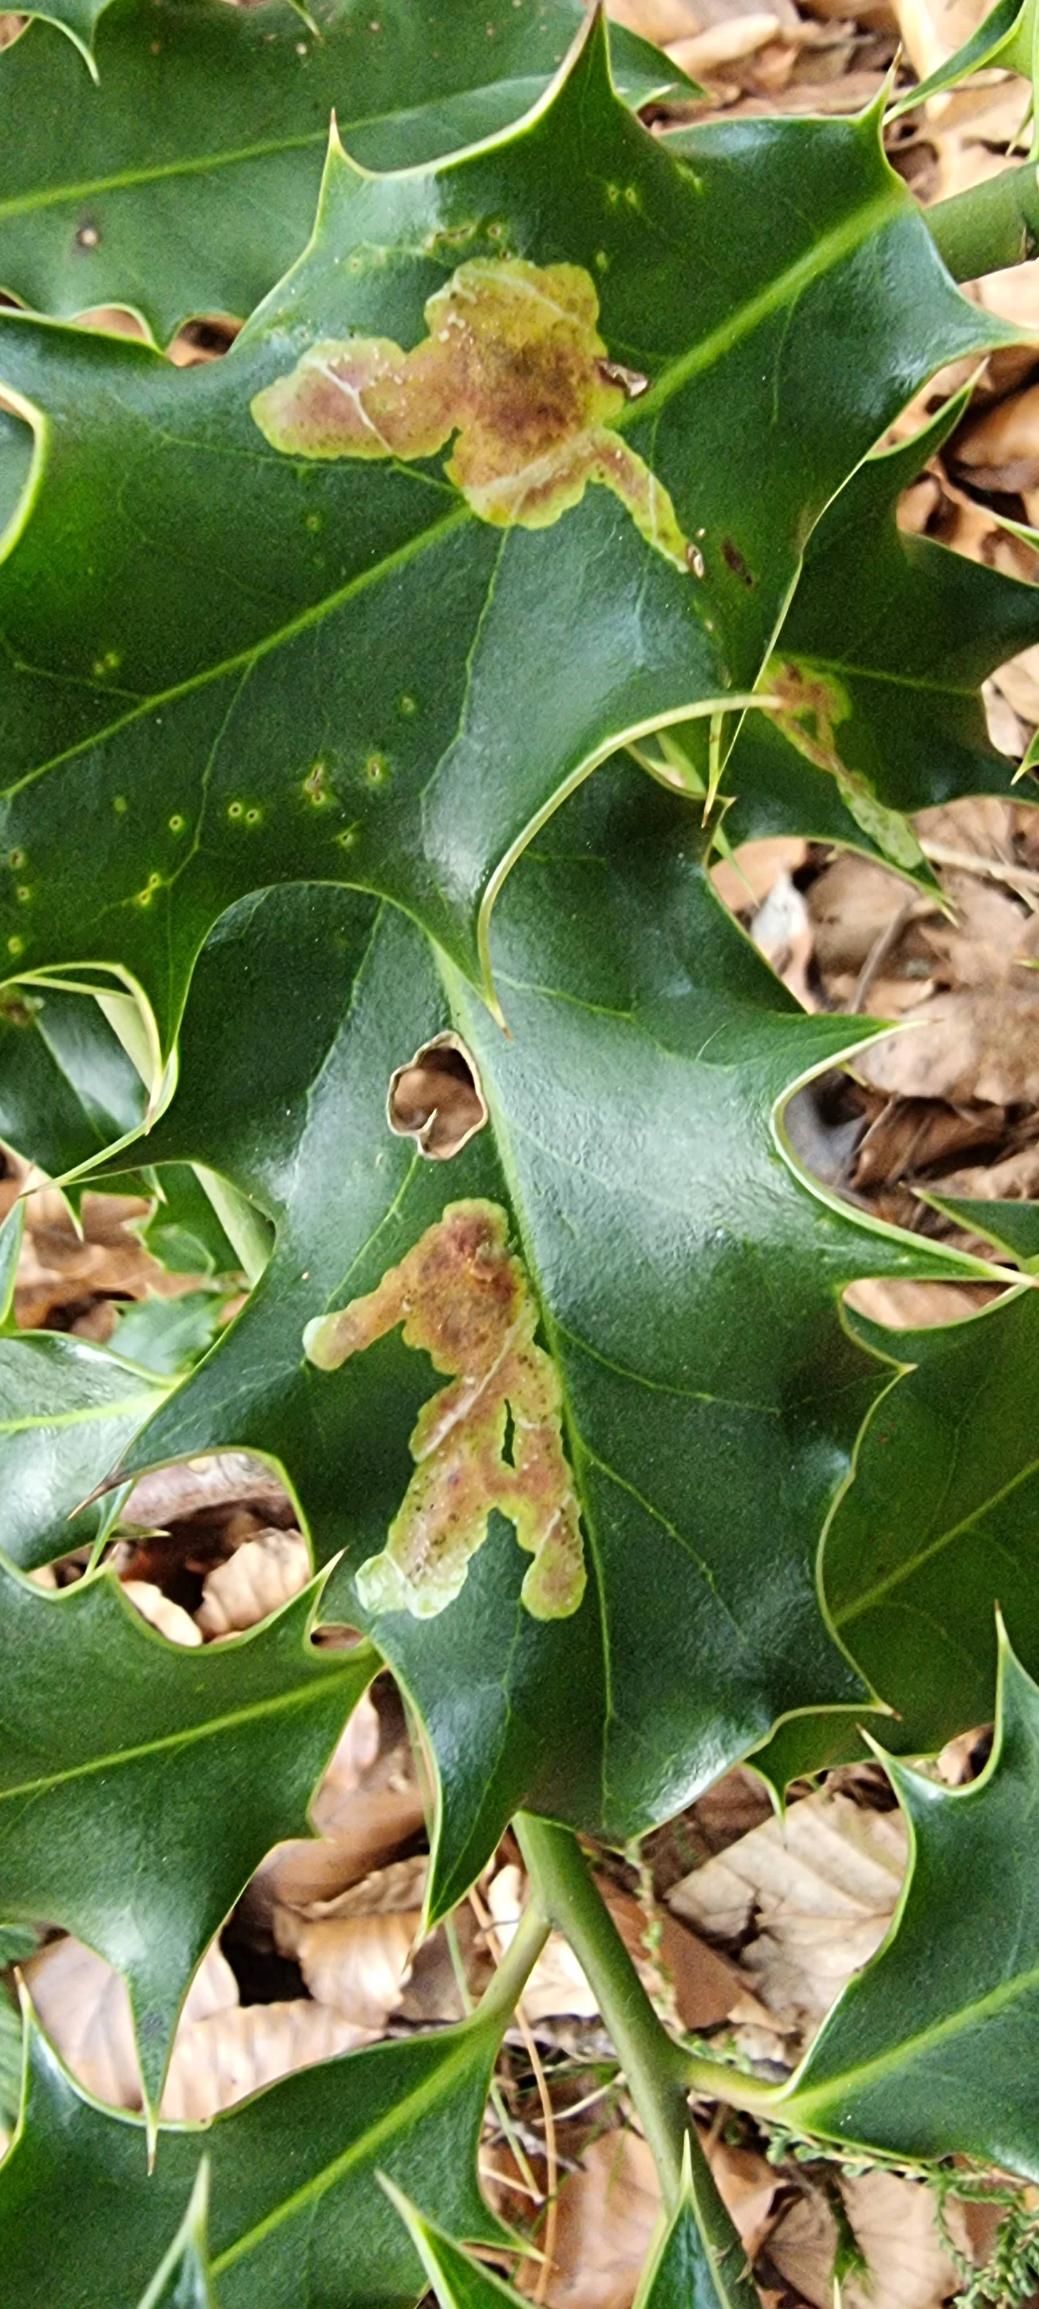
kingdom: Animalia
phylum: Arthropoda
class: Insecta
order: Diptera
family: Agromyzidae
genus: Phytomyza
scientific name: Phytomyza ilicis
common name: Kristtornminérflue
